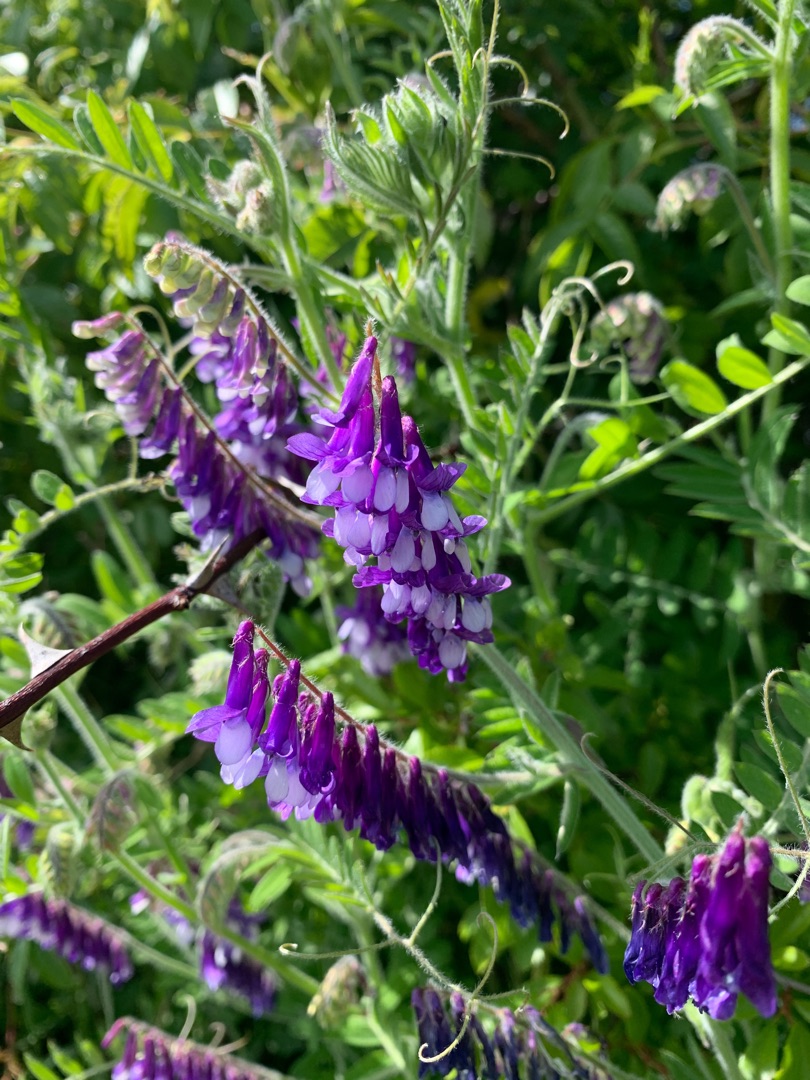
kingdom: Plantae
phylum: Tracheophyta
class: Magnoliopsida
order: Fabales
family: Fabaceae
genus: Vicia
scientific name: Vicia villosa
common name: Sand-vikke
